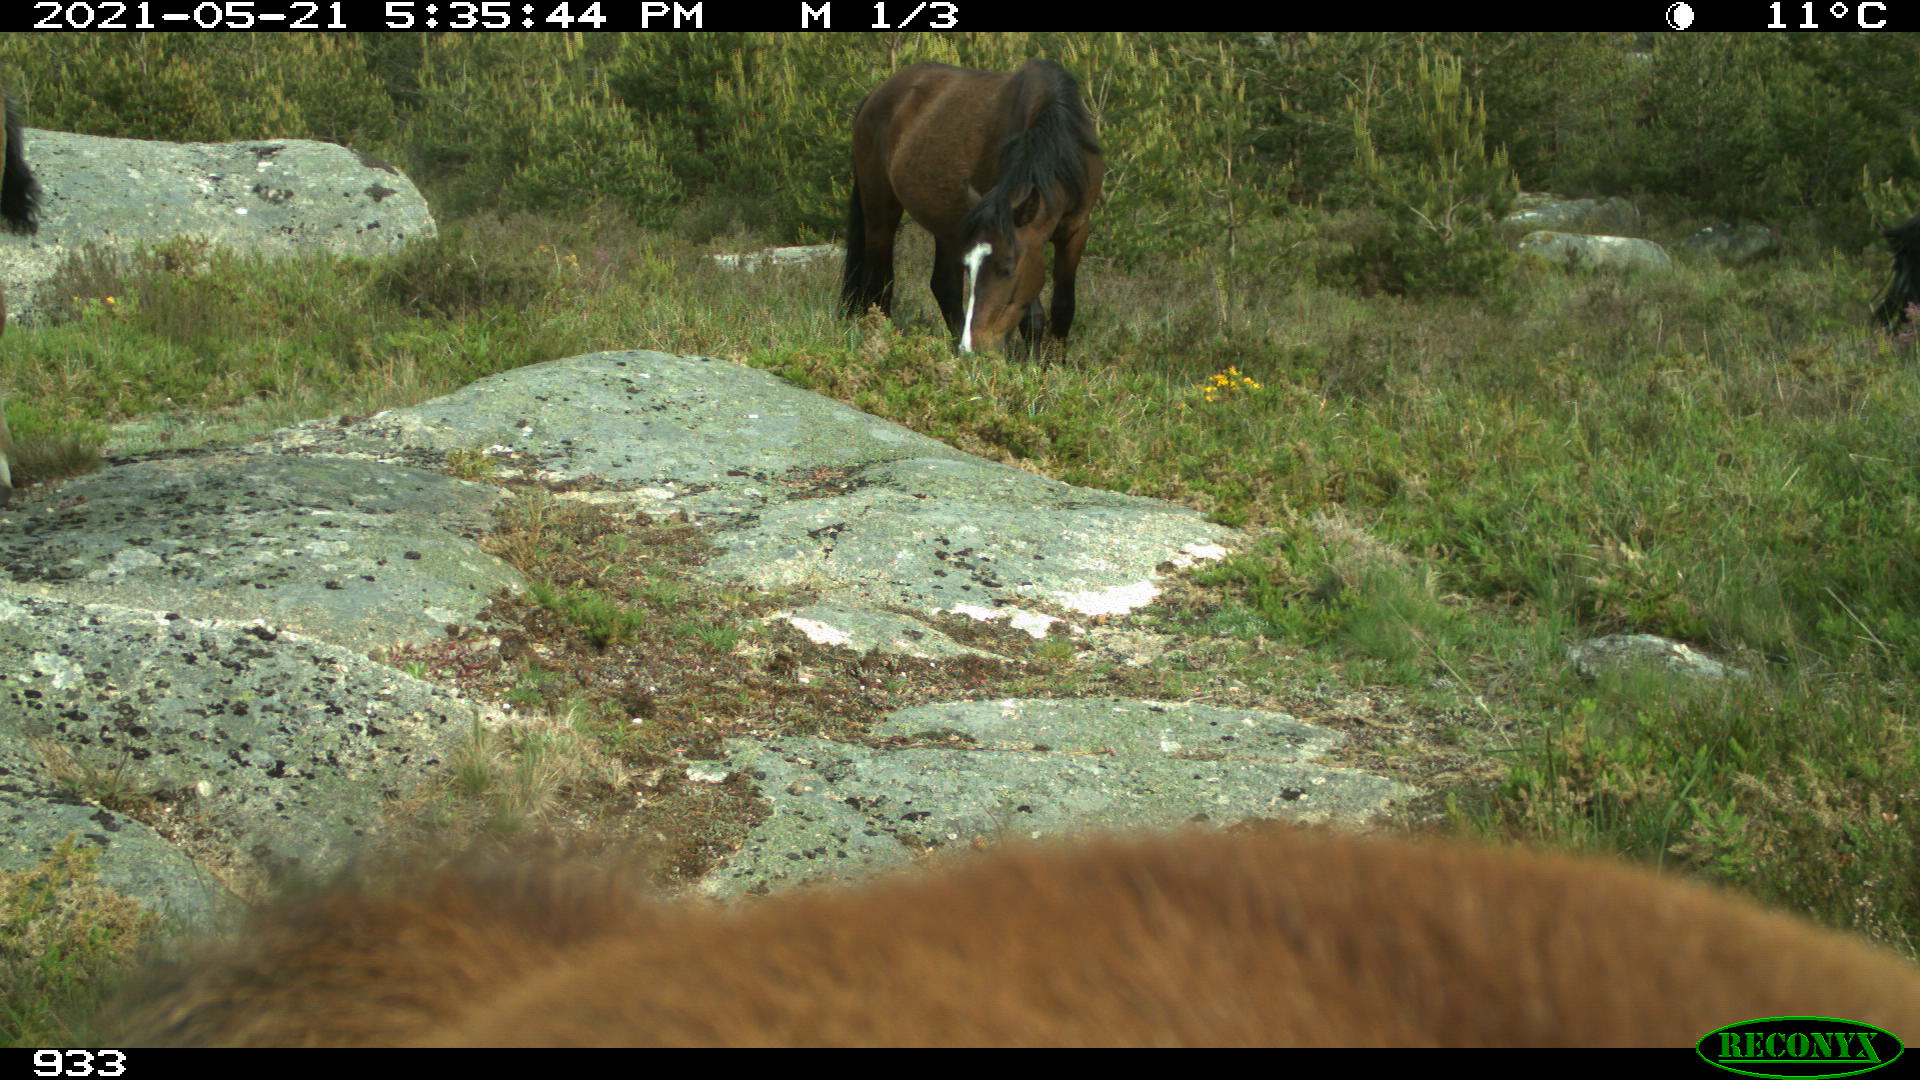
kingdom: Animalia
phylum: Chordata
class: Mammalia
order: Perissodactyla
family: Equidae
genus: Equus
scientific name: Equus caballus
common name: Horse
